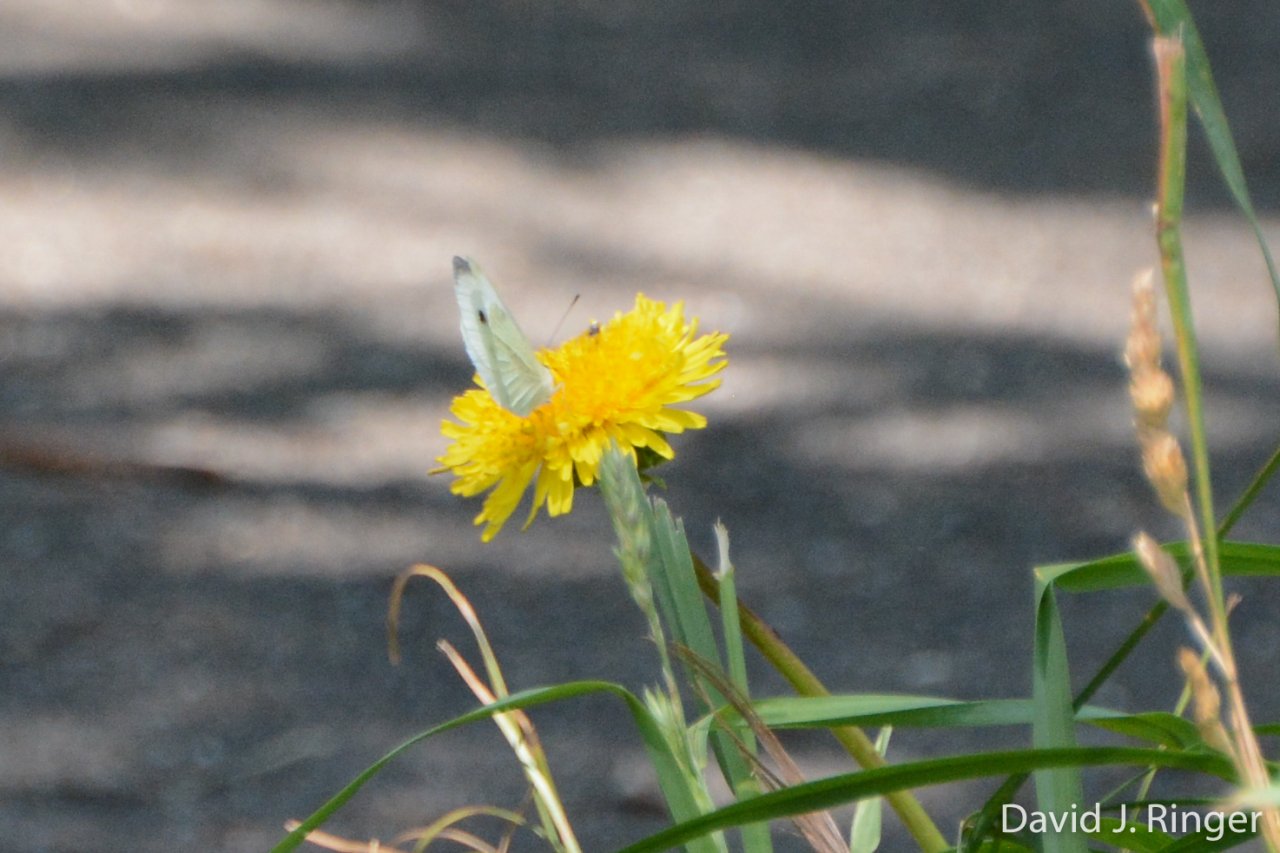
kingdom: Animalia
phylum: Arthropoda
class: Insecta
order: Lepidoptera
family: Pieridae
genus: Pieris
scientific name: Pieris rapae
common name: Cabbage White
